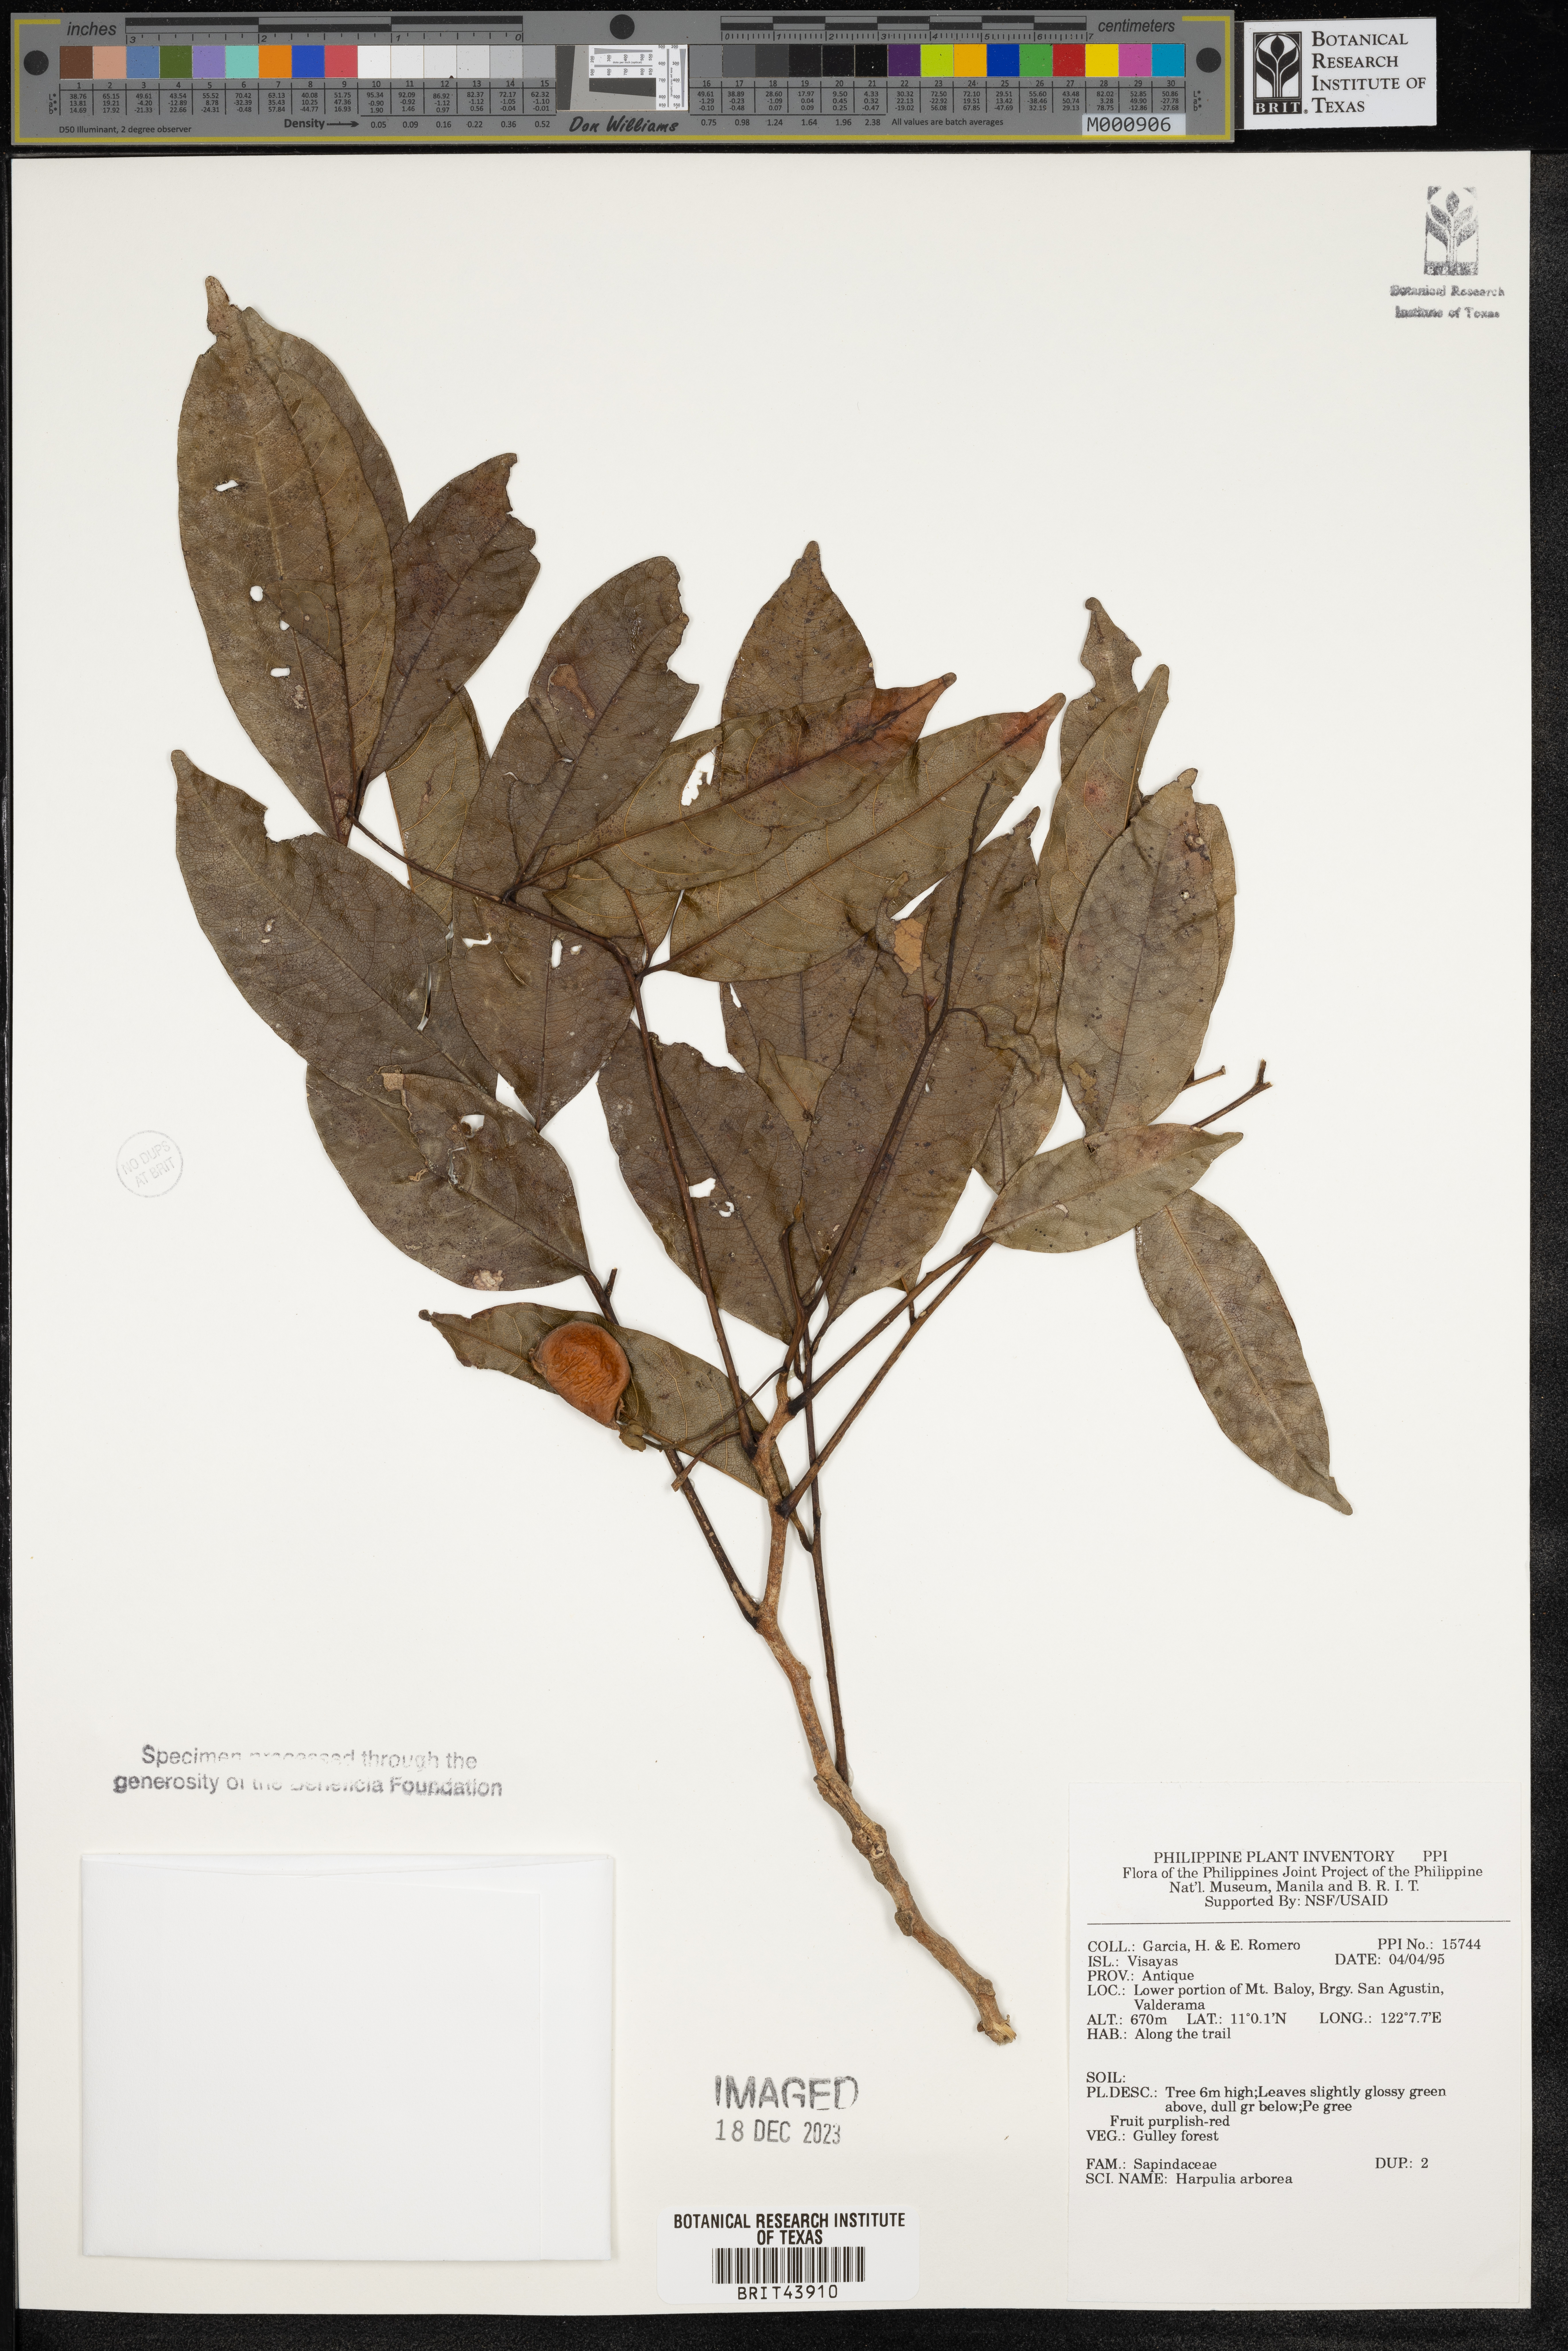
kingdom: Plantae
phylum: Tracheophyta
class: Magnoliopsida
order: Sapindales
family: Sapindaceae
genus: Harpullia
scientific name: Harpullia arborea
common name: Tulip-wood tree
